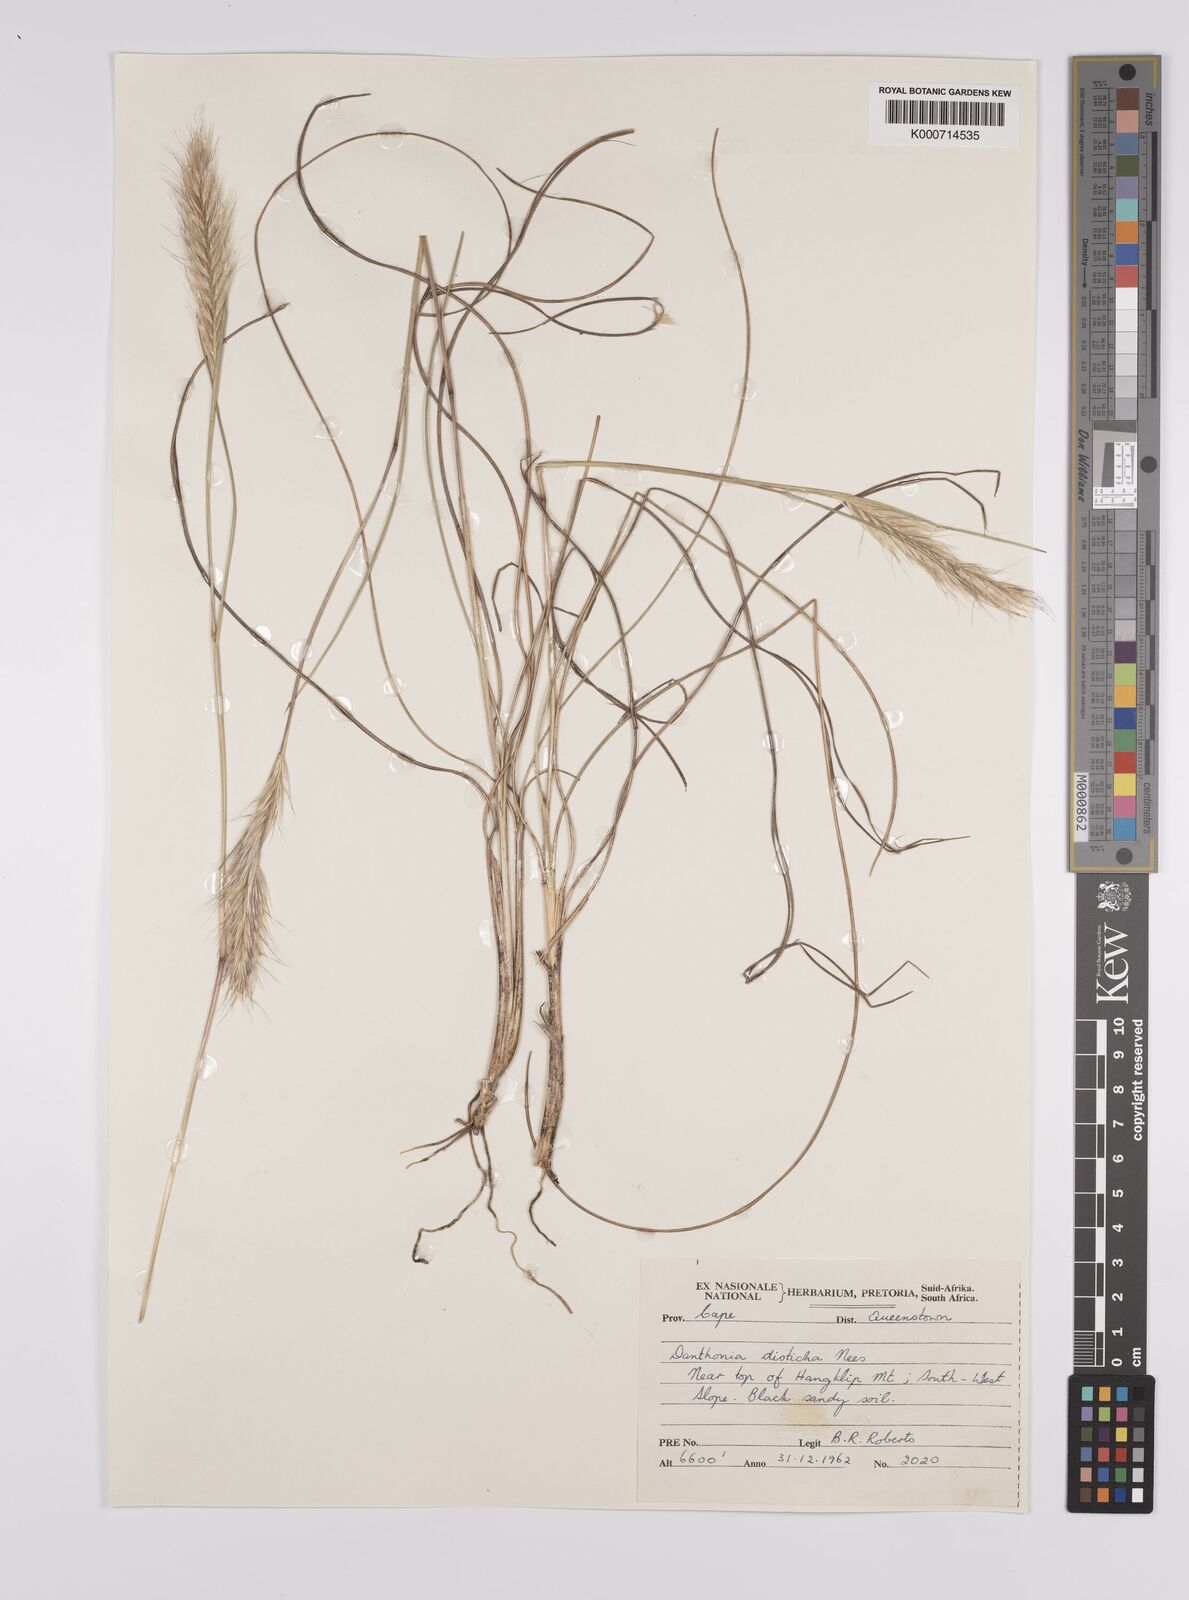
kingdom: Plantae
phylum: Tracheophyta
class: Liliopsida
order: Poales
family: Poaceae
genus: Tenaxia
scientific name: Tenaxia disticha
